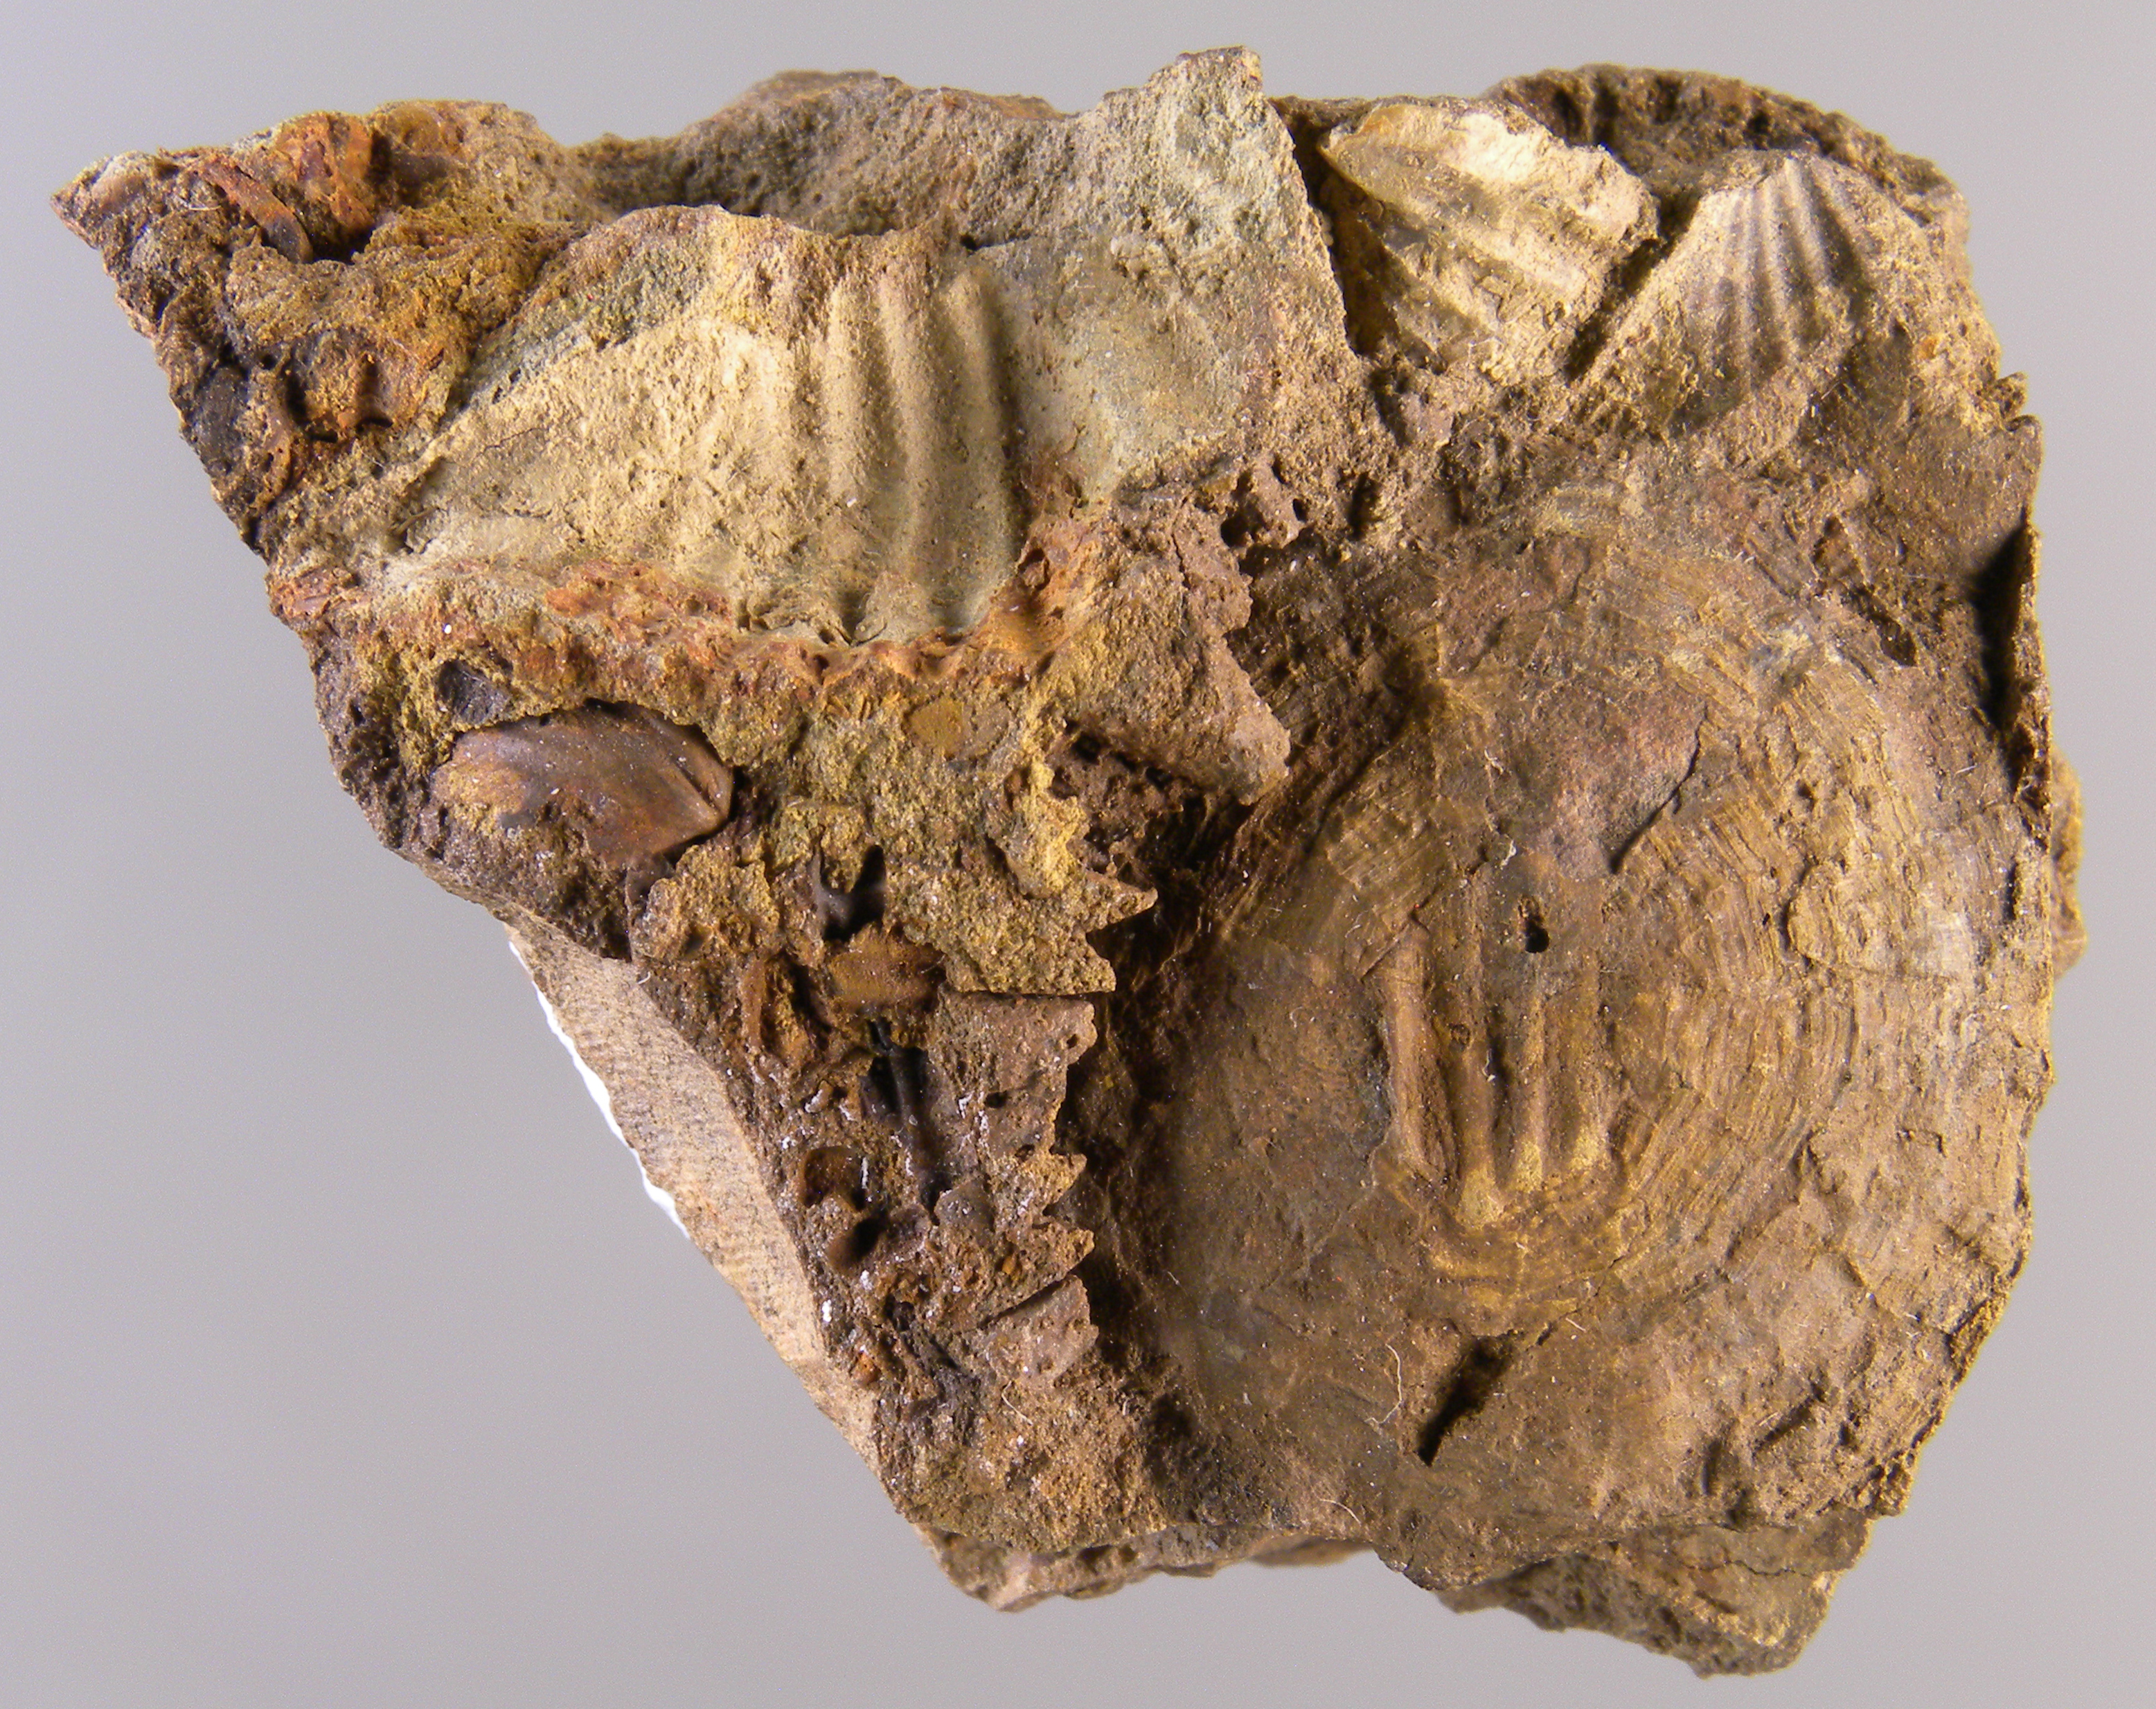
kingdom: Animalia
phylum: Cnidaria
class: Anthozoa
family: Micheliniidae
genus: Pleurodictyum
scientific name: Pleurodictyum
